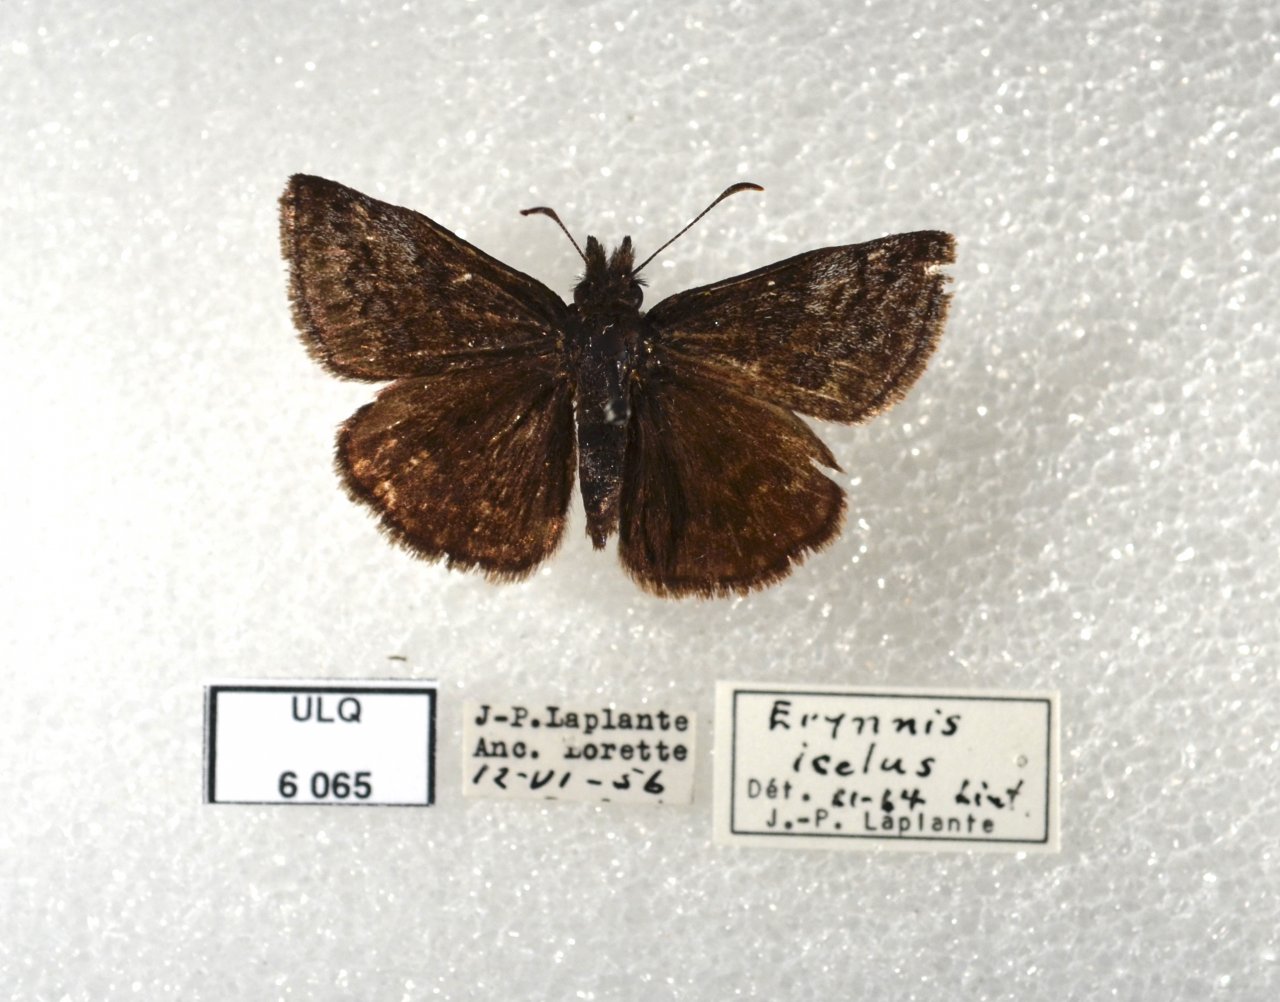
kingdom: Animalia
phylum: Arthropoda
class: Insecta
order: Lepidoptera
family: Hesperiidae
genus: Erynnis
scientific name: Erynnis icelus
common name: Dreamy Duskywing
